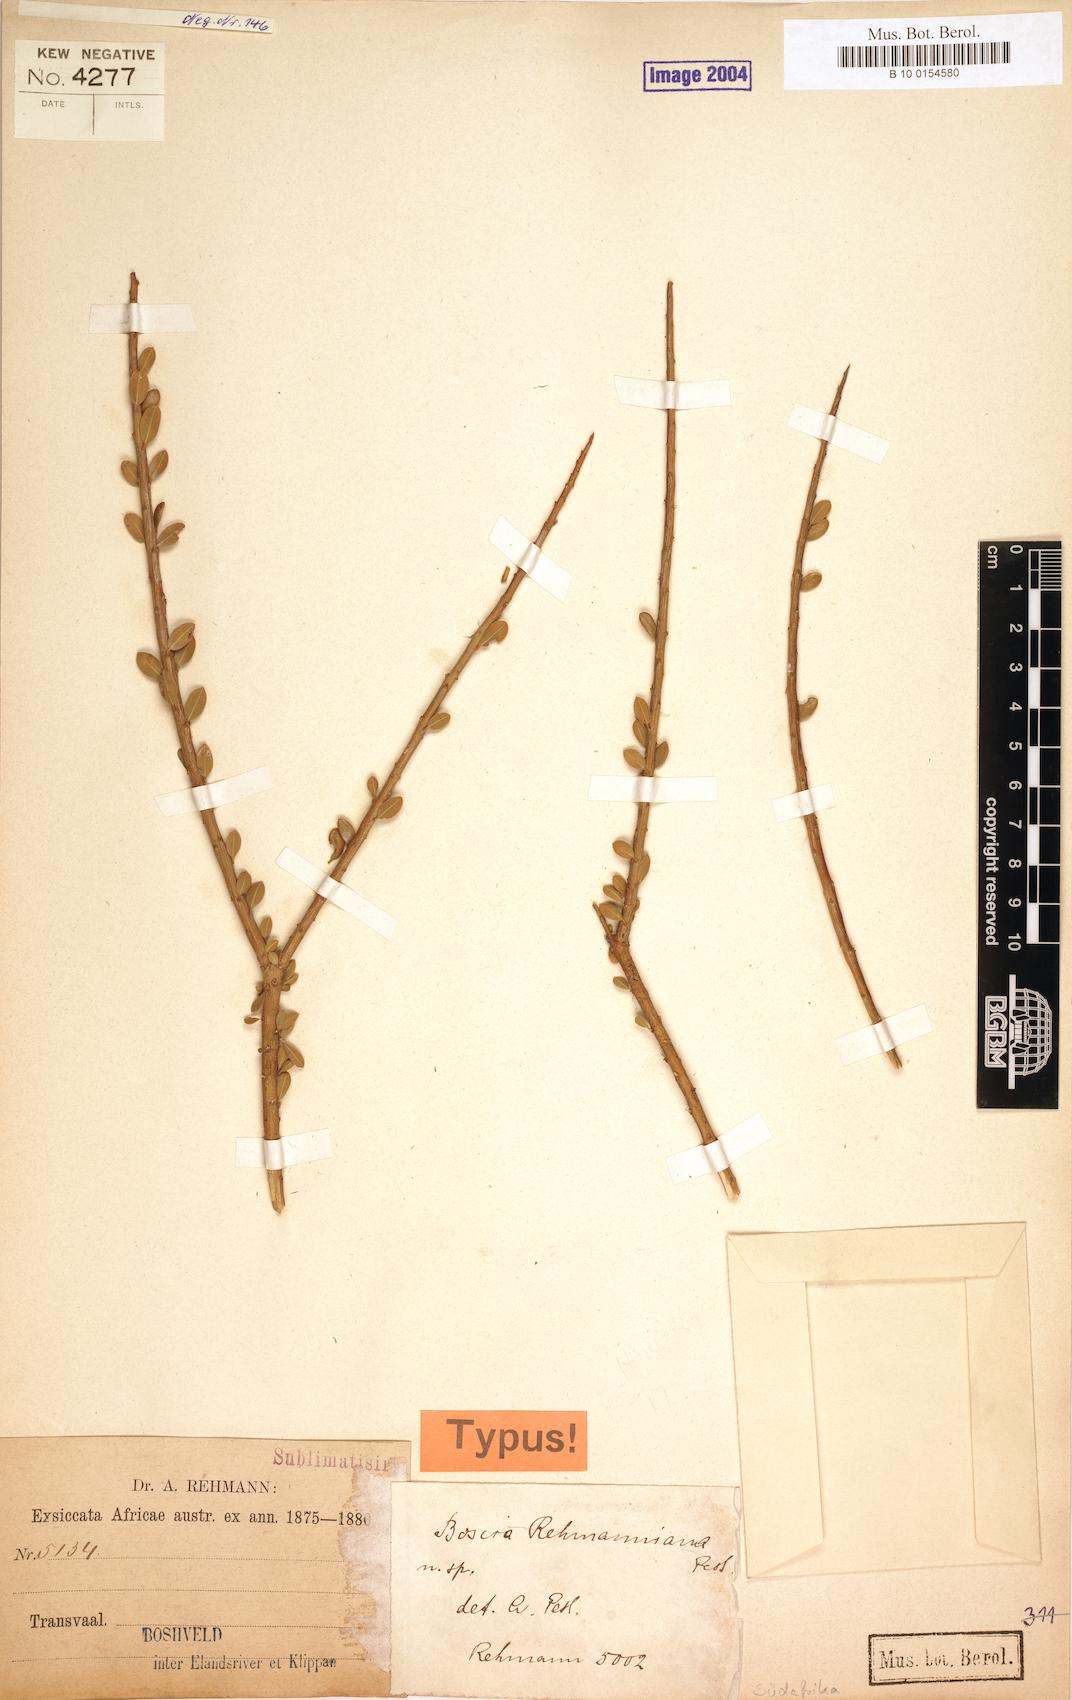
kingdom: Plantae
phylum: Tracheophyta
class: Magnoliopsida
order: Brassicales
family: Capparaceae
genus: Boscia
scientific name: Boscia foetida
